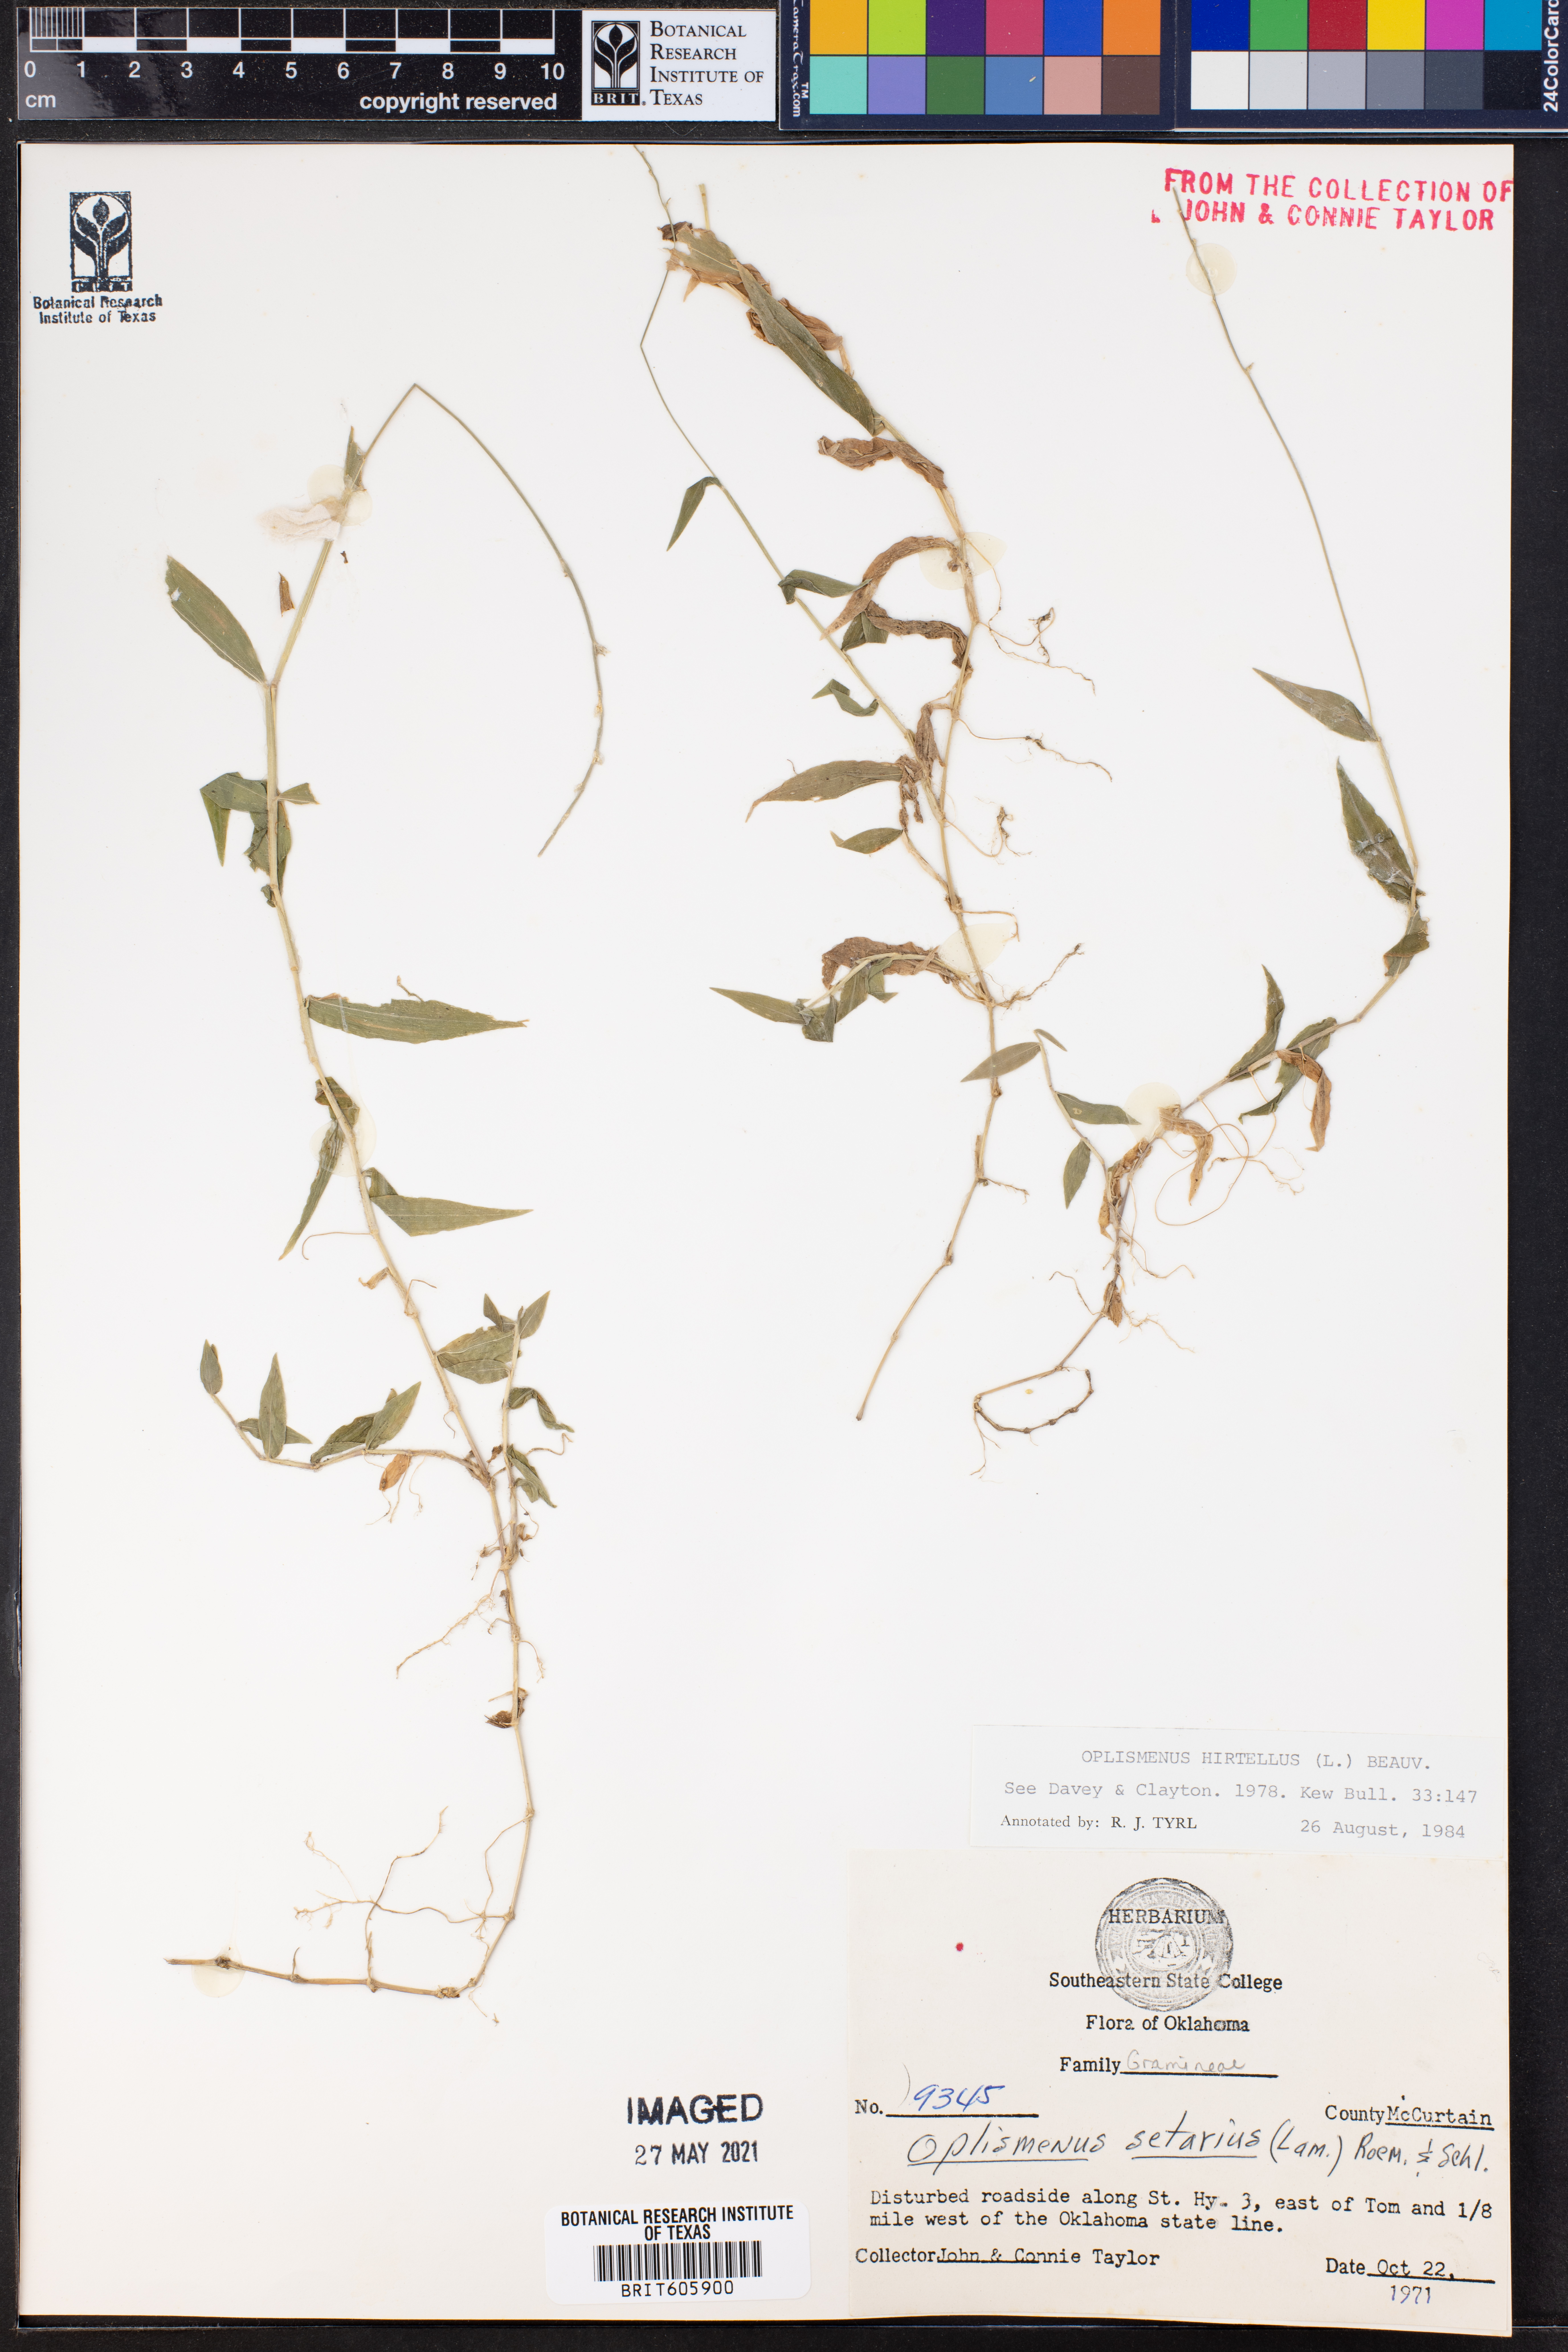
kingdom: Plantae
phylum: Tracheophyta
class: Liliopsida
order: Poales
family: Poaceae
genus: Oplismenus
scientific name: Oplismenus hirtellus
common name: Basketgrass
